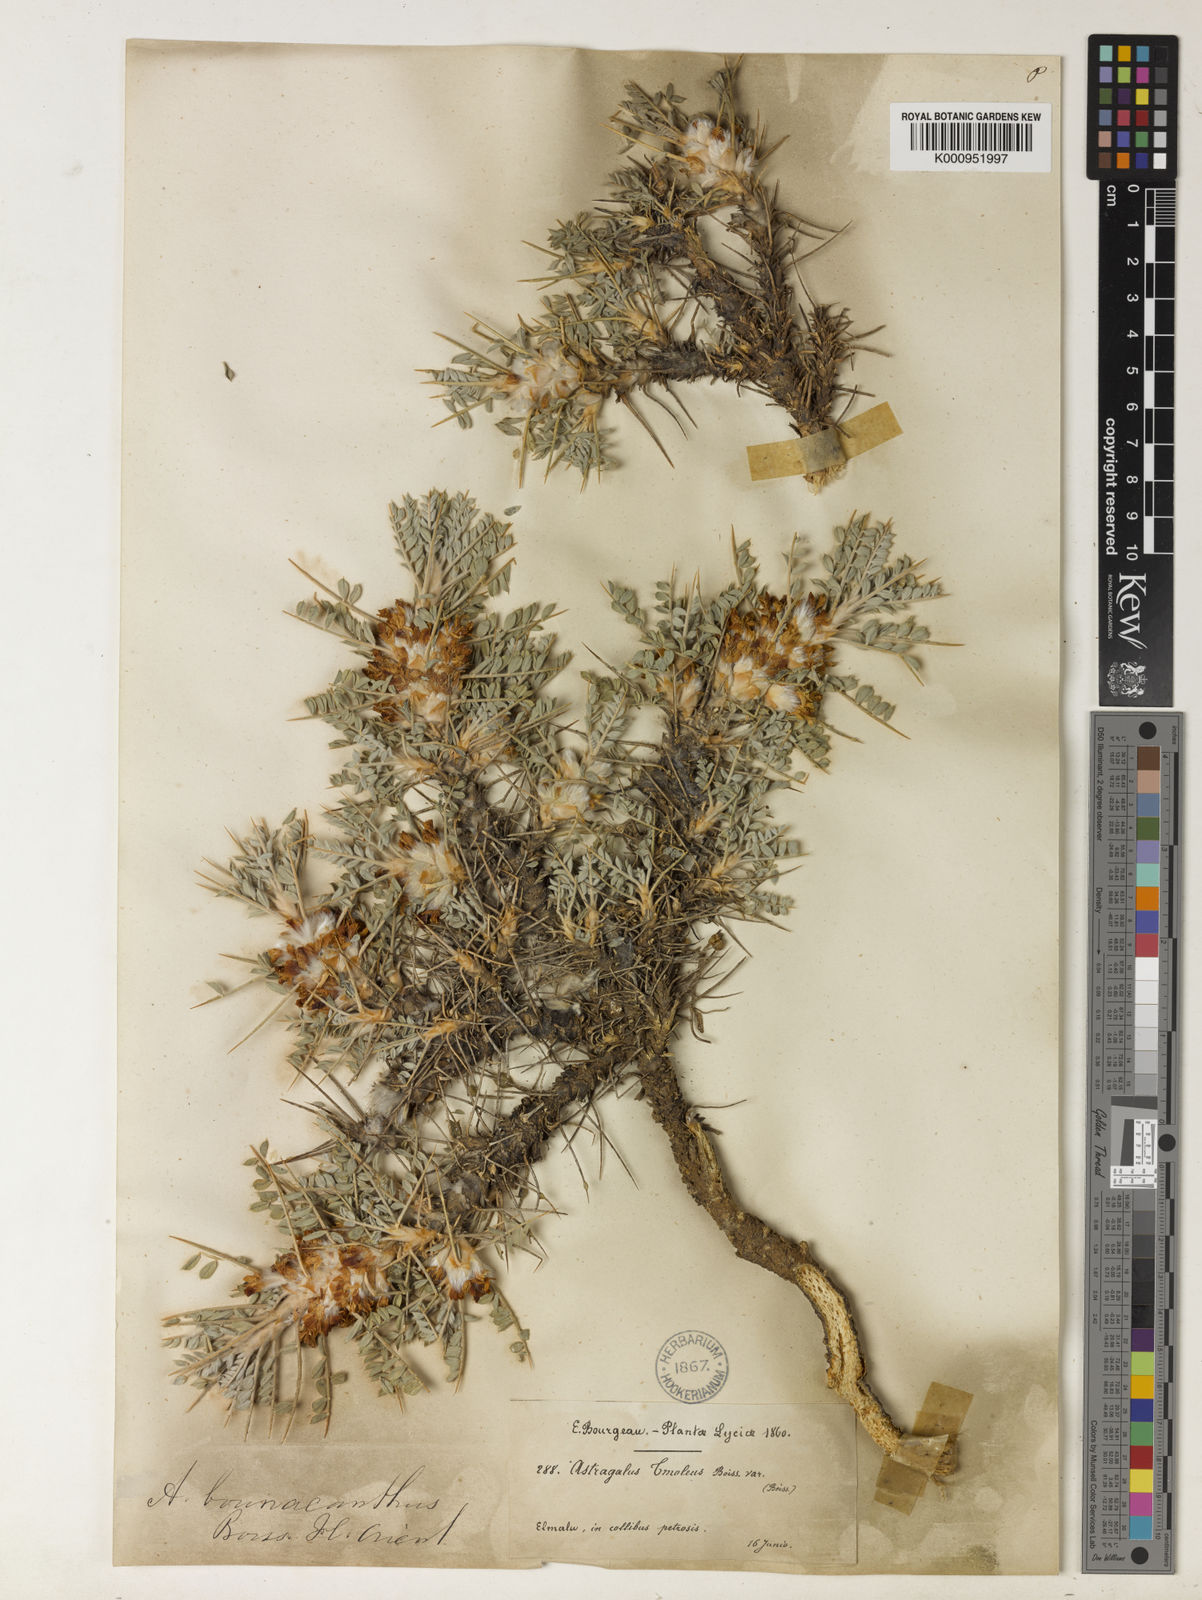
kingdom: Plantae
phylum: Tracheophyta
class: Magnoliopsida
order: Fabales
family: Fabaceae
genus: Astragalus
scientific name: Astragalus tmoleus
